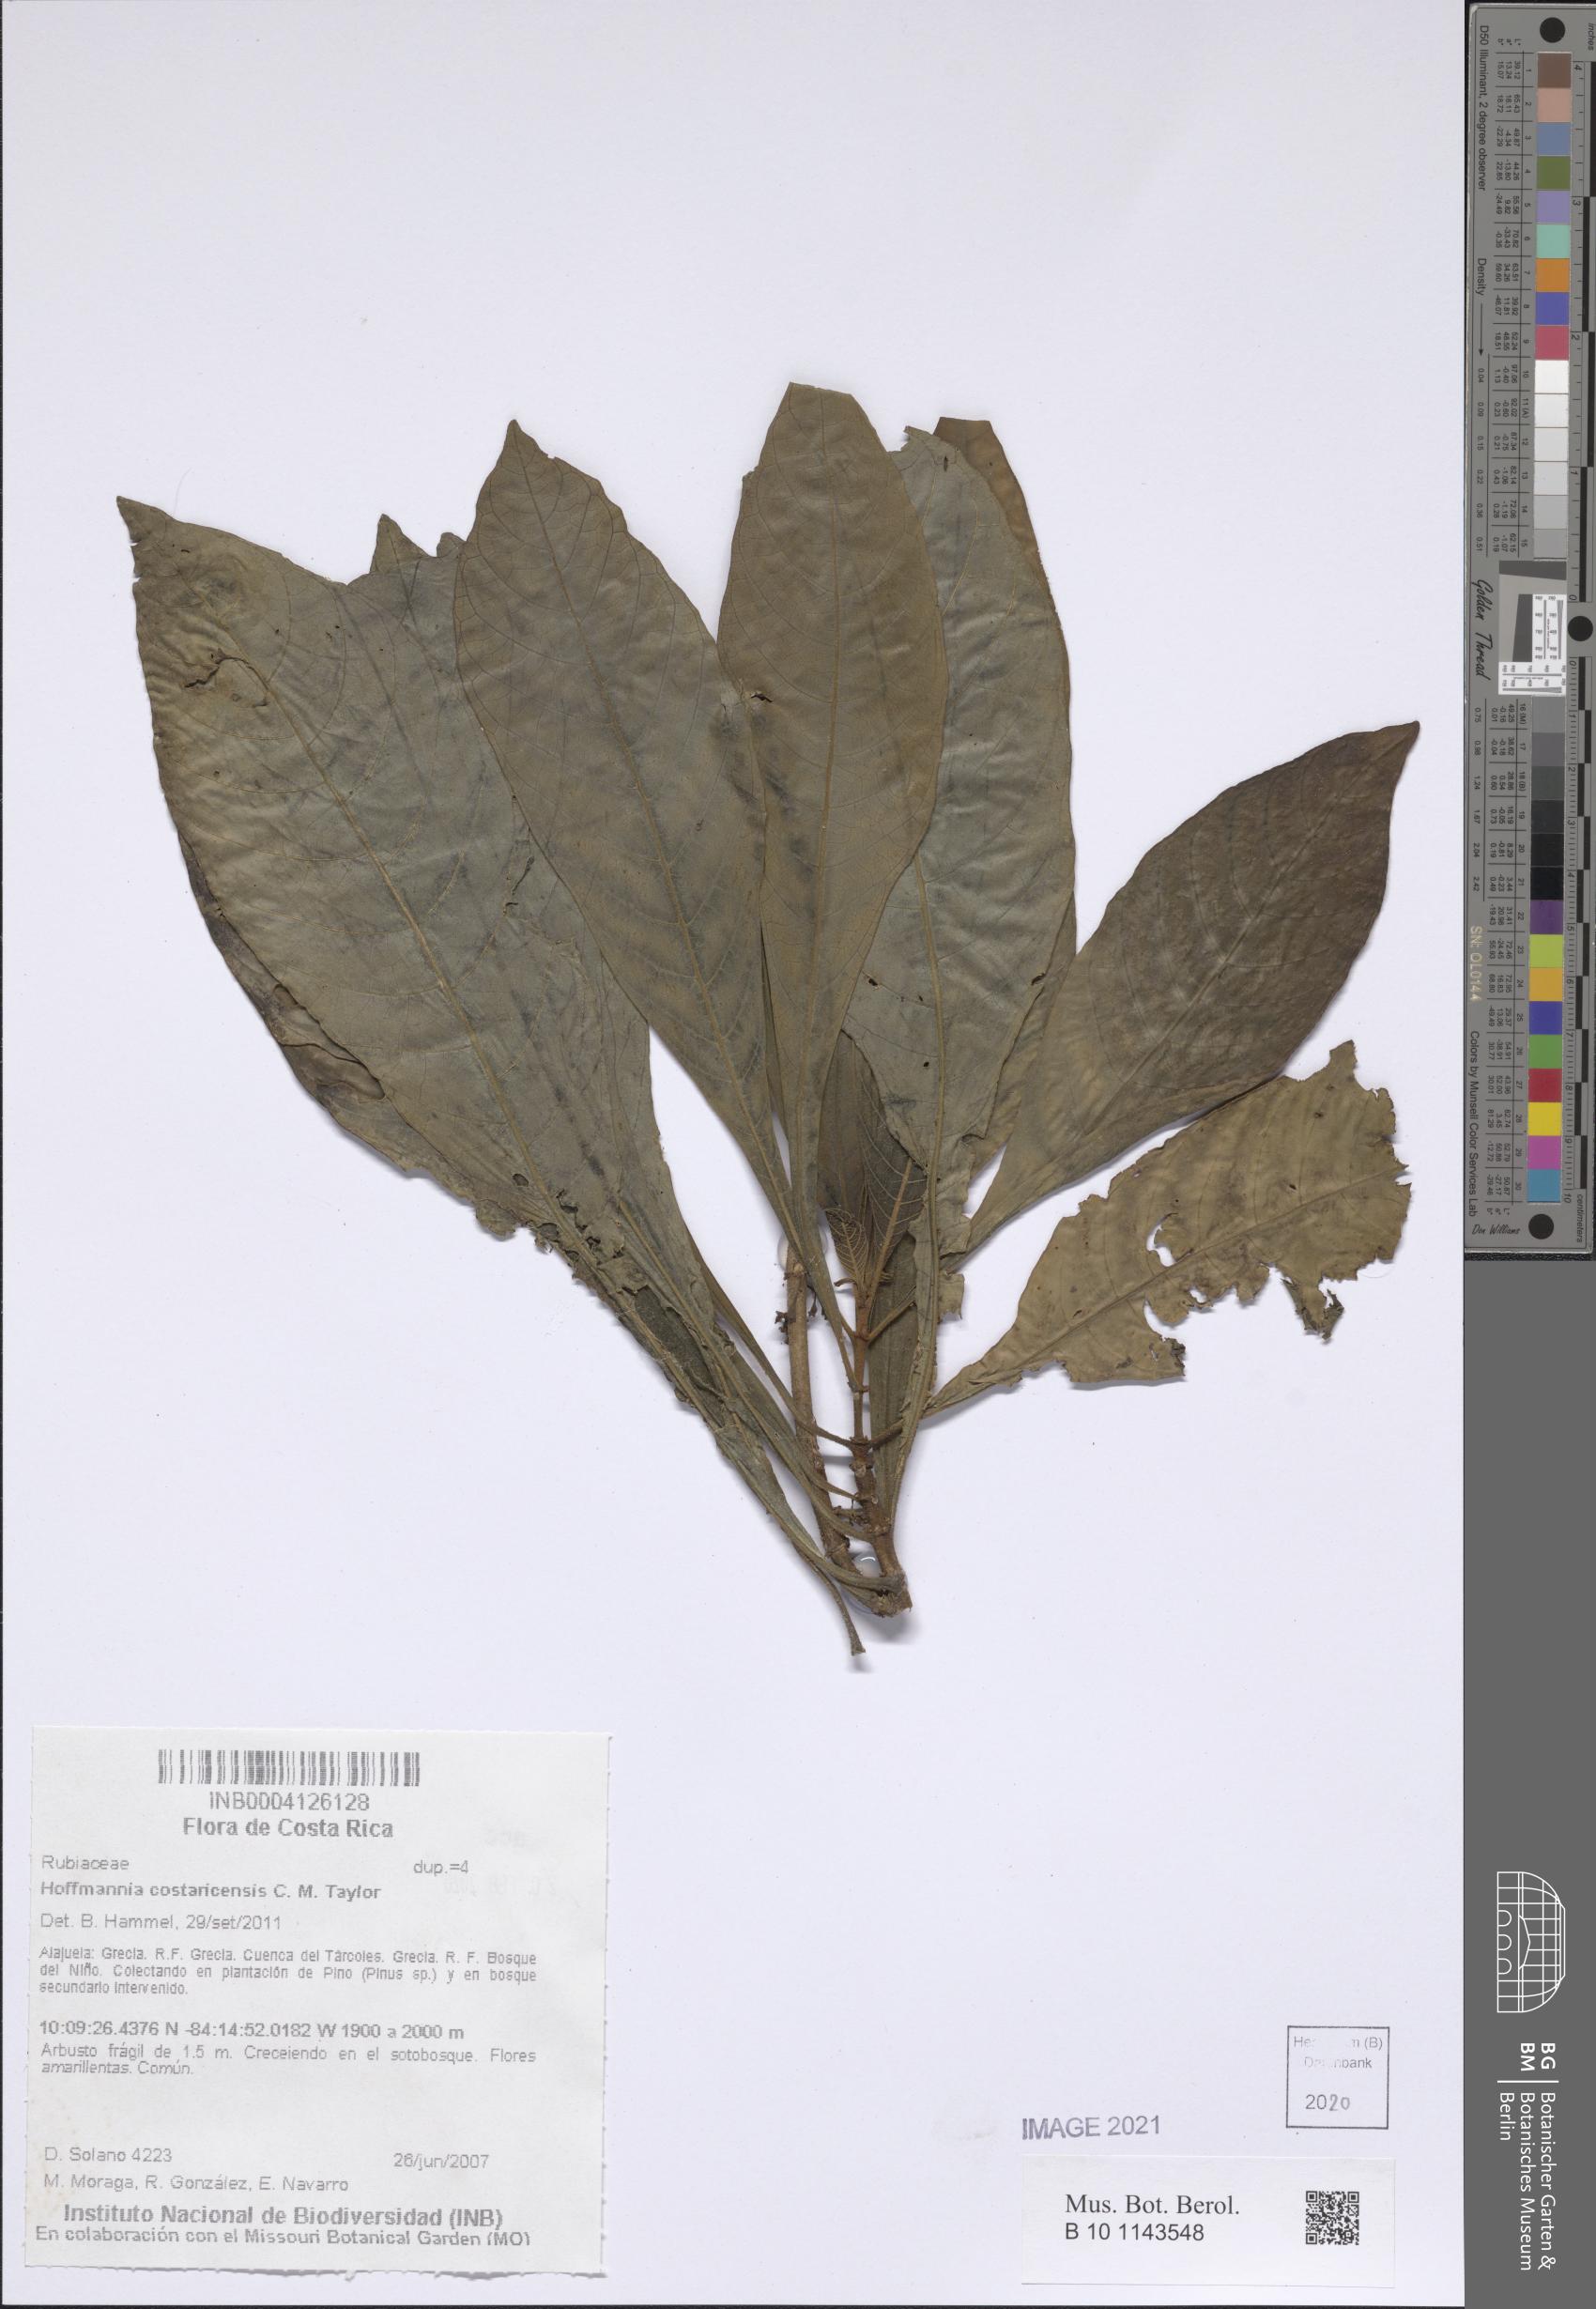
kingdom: Plantae
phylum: Tracheophyta
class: Magnoliopsida
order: Gentianales
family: Rubiaceae
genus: Hoffmannia
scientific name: Hoffmannia costaricensis
